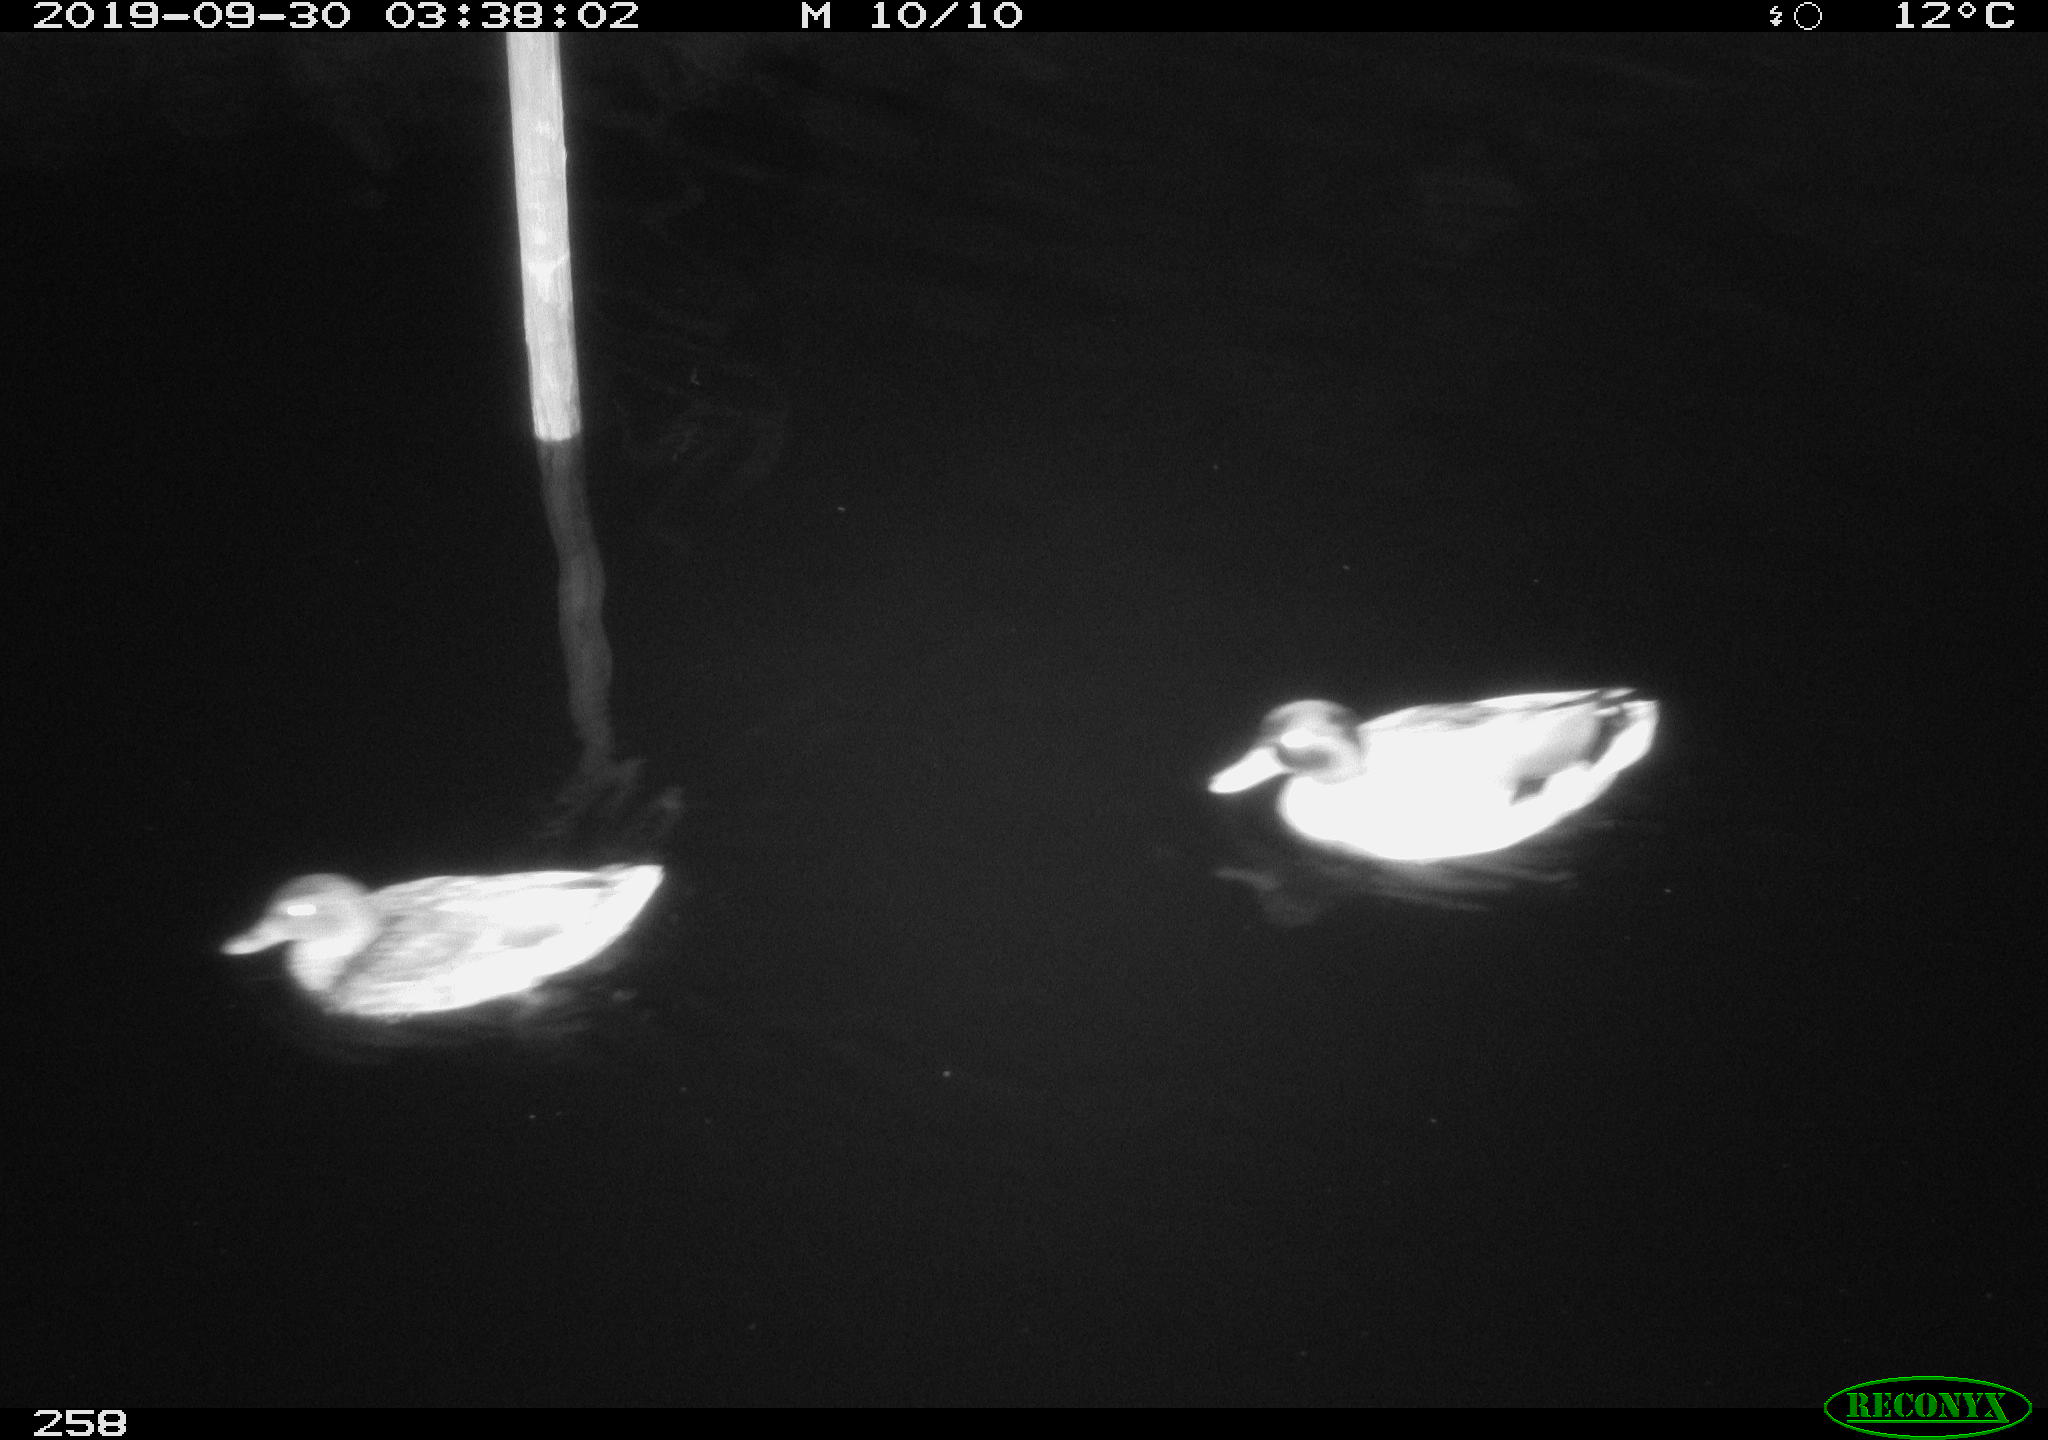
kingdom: Animalia
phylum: Chordata
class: Aves
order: Anseriformes
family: Anatidae
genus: Anas
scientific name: Anas platyrhynchos
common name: Mallard
